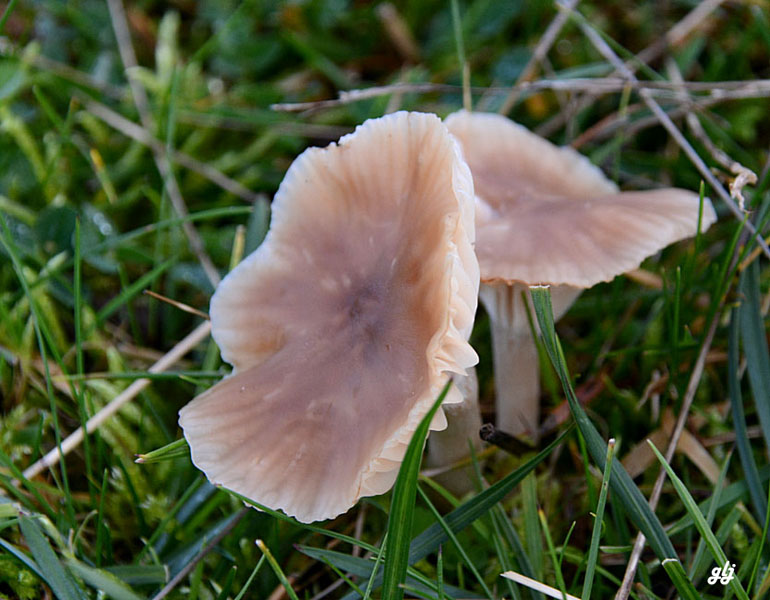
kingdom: Fungi
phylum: Basidiomycota
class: Agaricomycetes
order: Agaricales
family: Hygrophoraceae
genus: Cuphophyllus
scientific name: Cuphophyllus colemannianus
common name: rødbrun vokshat
